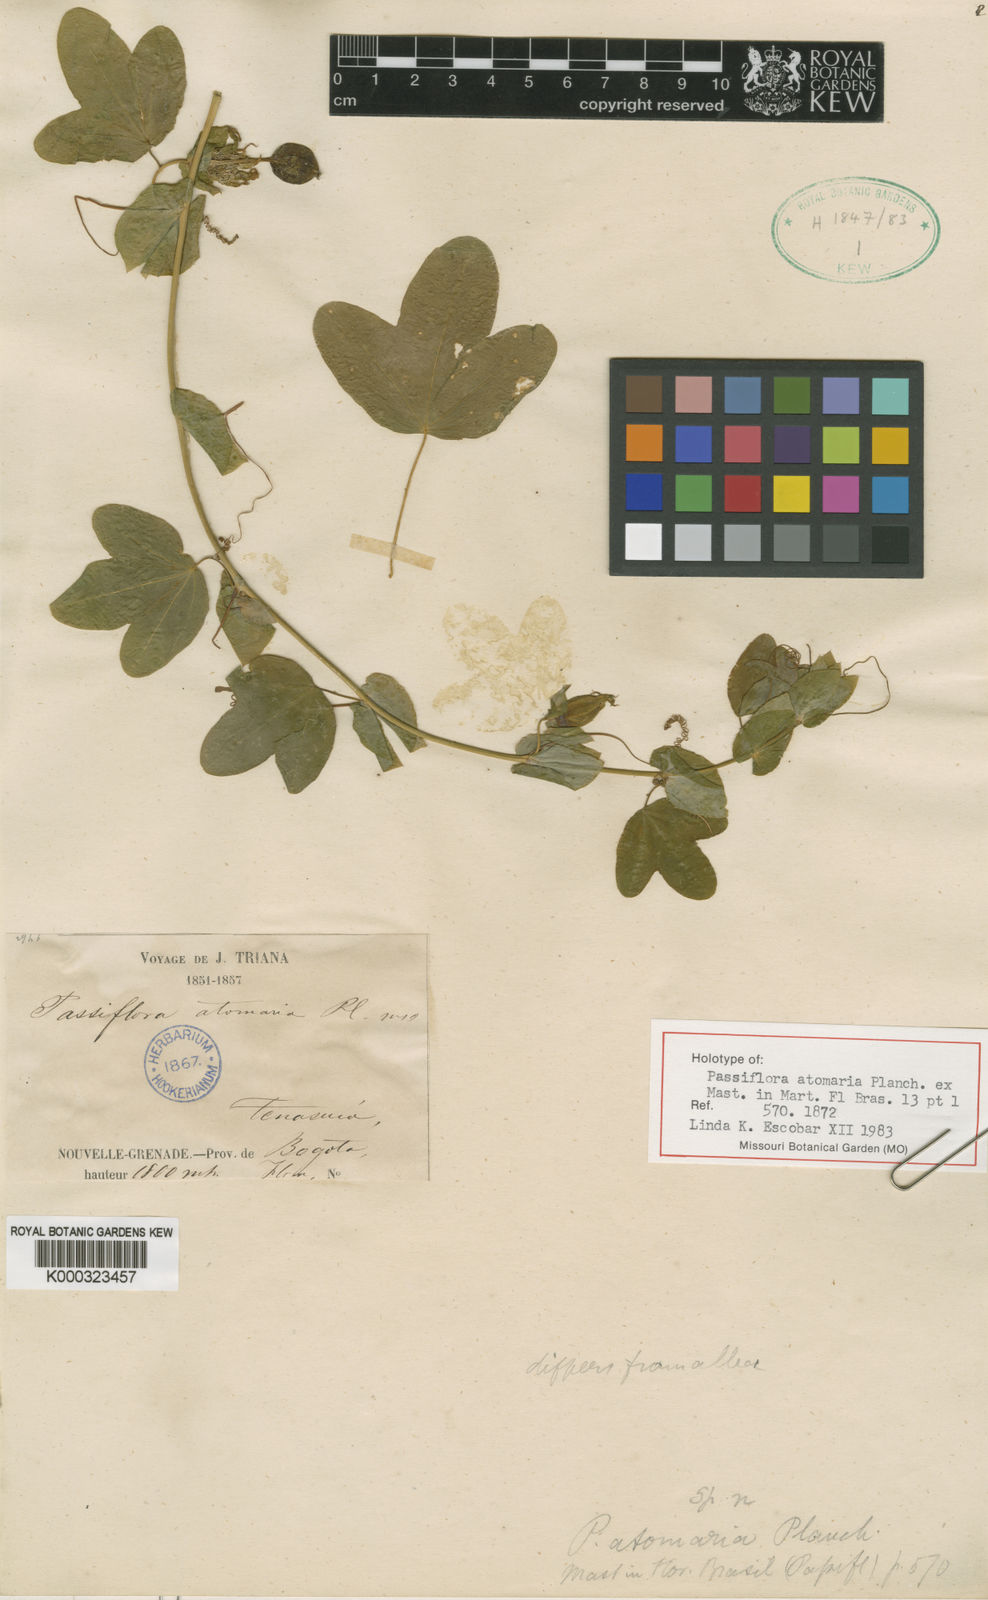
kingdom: Plantae
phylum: Tracheophyta
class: Magnoliopsida
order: Malpighiales
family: Passifloraceae
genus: Passiflora
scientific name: Passiflora subpeltata
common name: White passionflower
